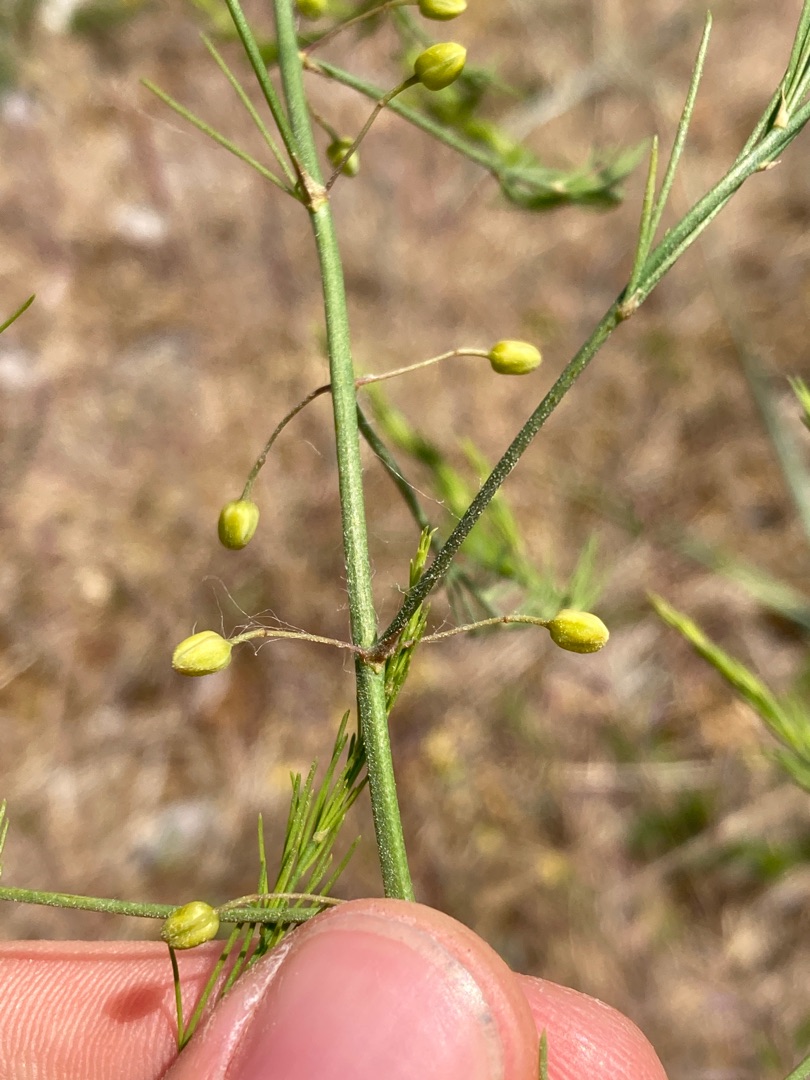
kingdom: Plantae
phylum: Tracheophyta
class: Liliopsida
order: Asparagales
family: Asparagaceae
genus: Asparagus
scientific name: Asparagus officinalis
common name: Asparges
